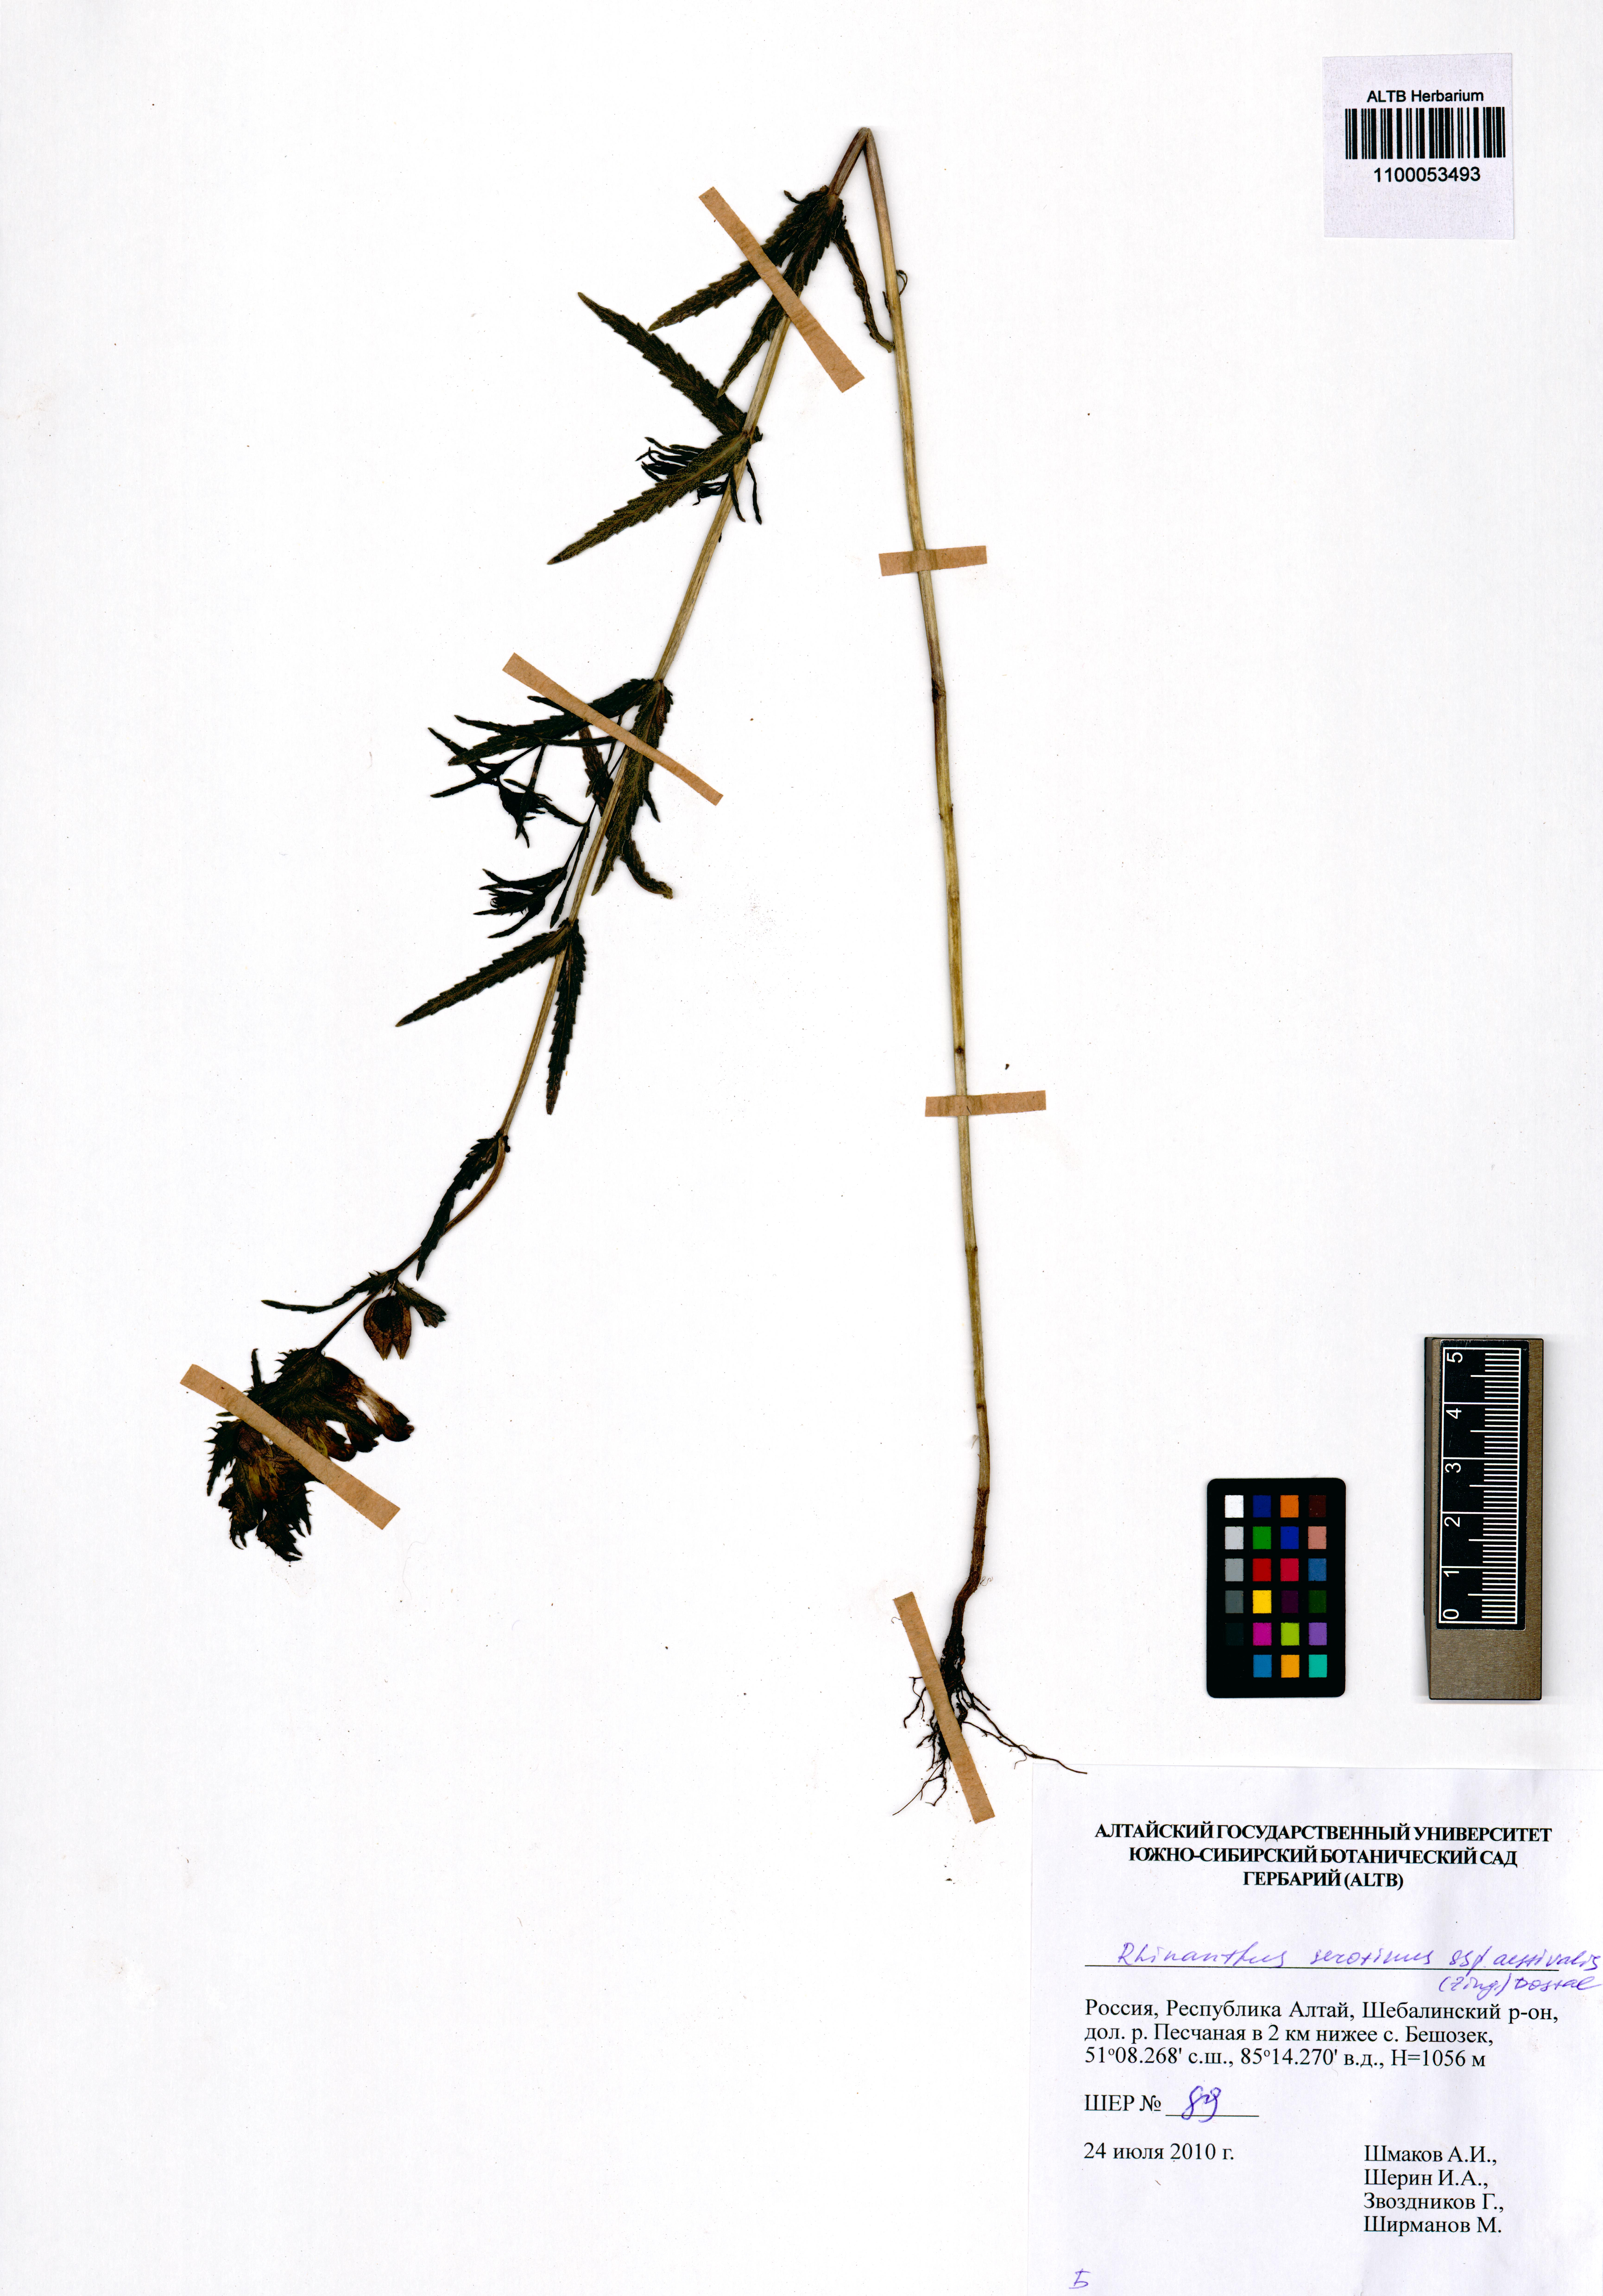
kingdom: Plantae
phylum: Tracheophyta
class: Magnoliopsida
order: Lamiales
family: Orobanchaceae
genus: Rhinanthus
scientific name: Rhinanthus serotinus
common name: Late-flowering yellow rattle
